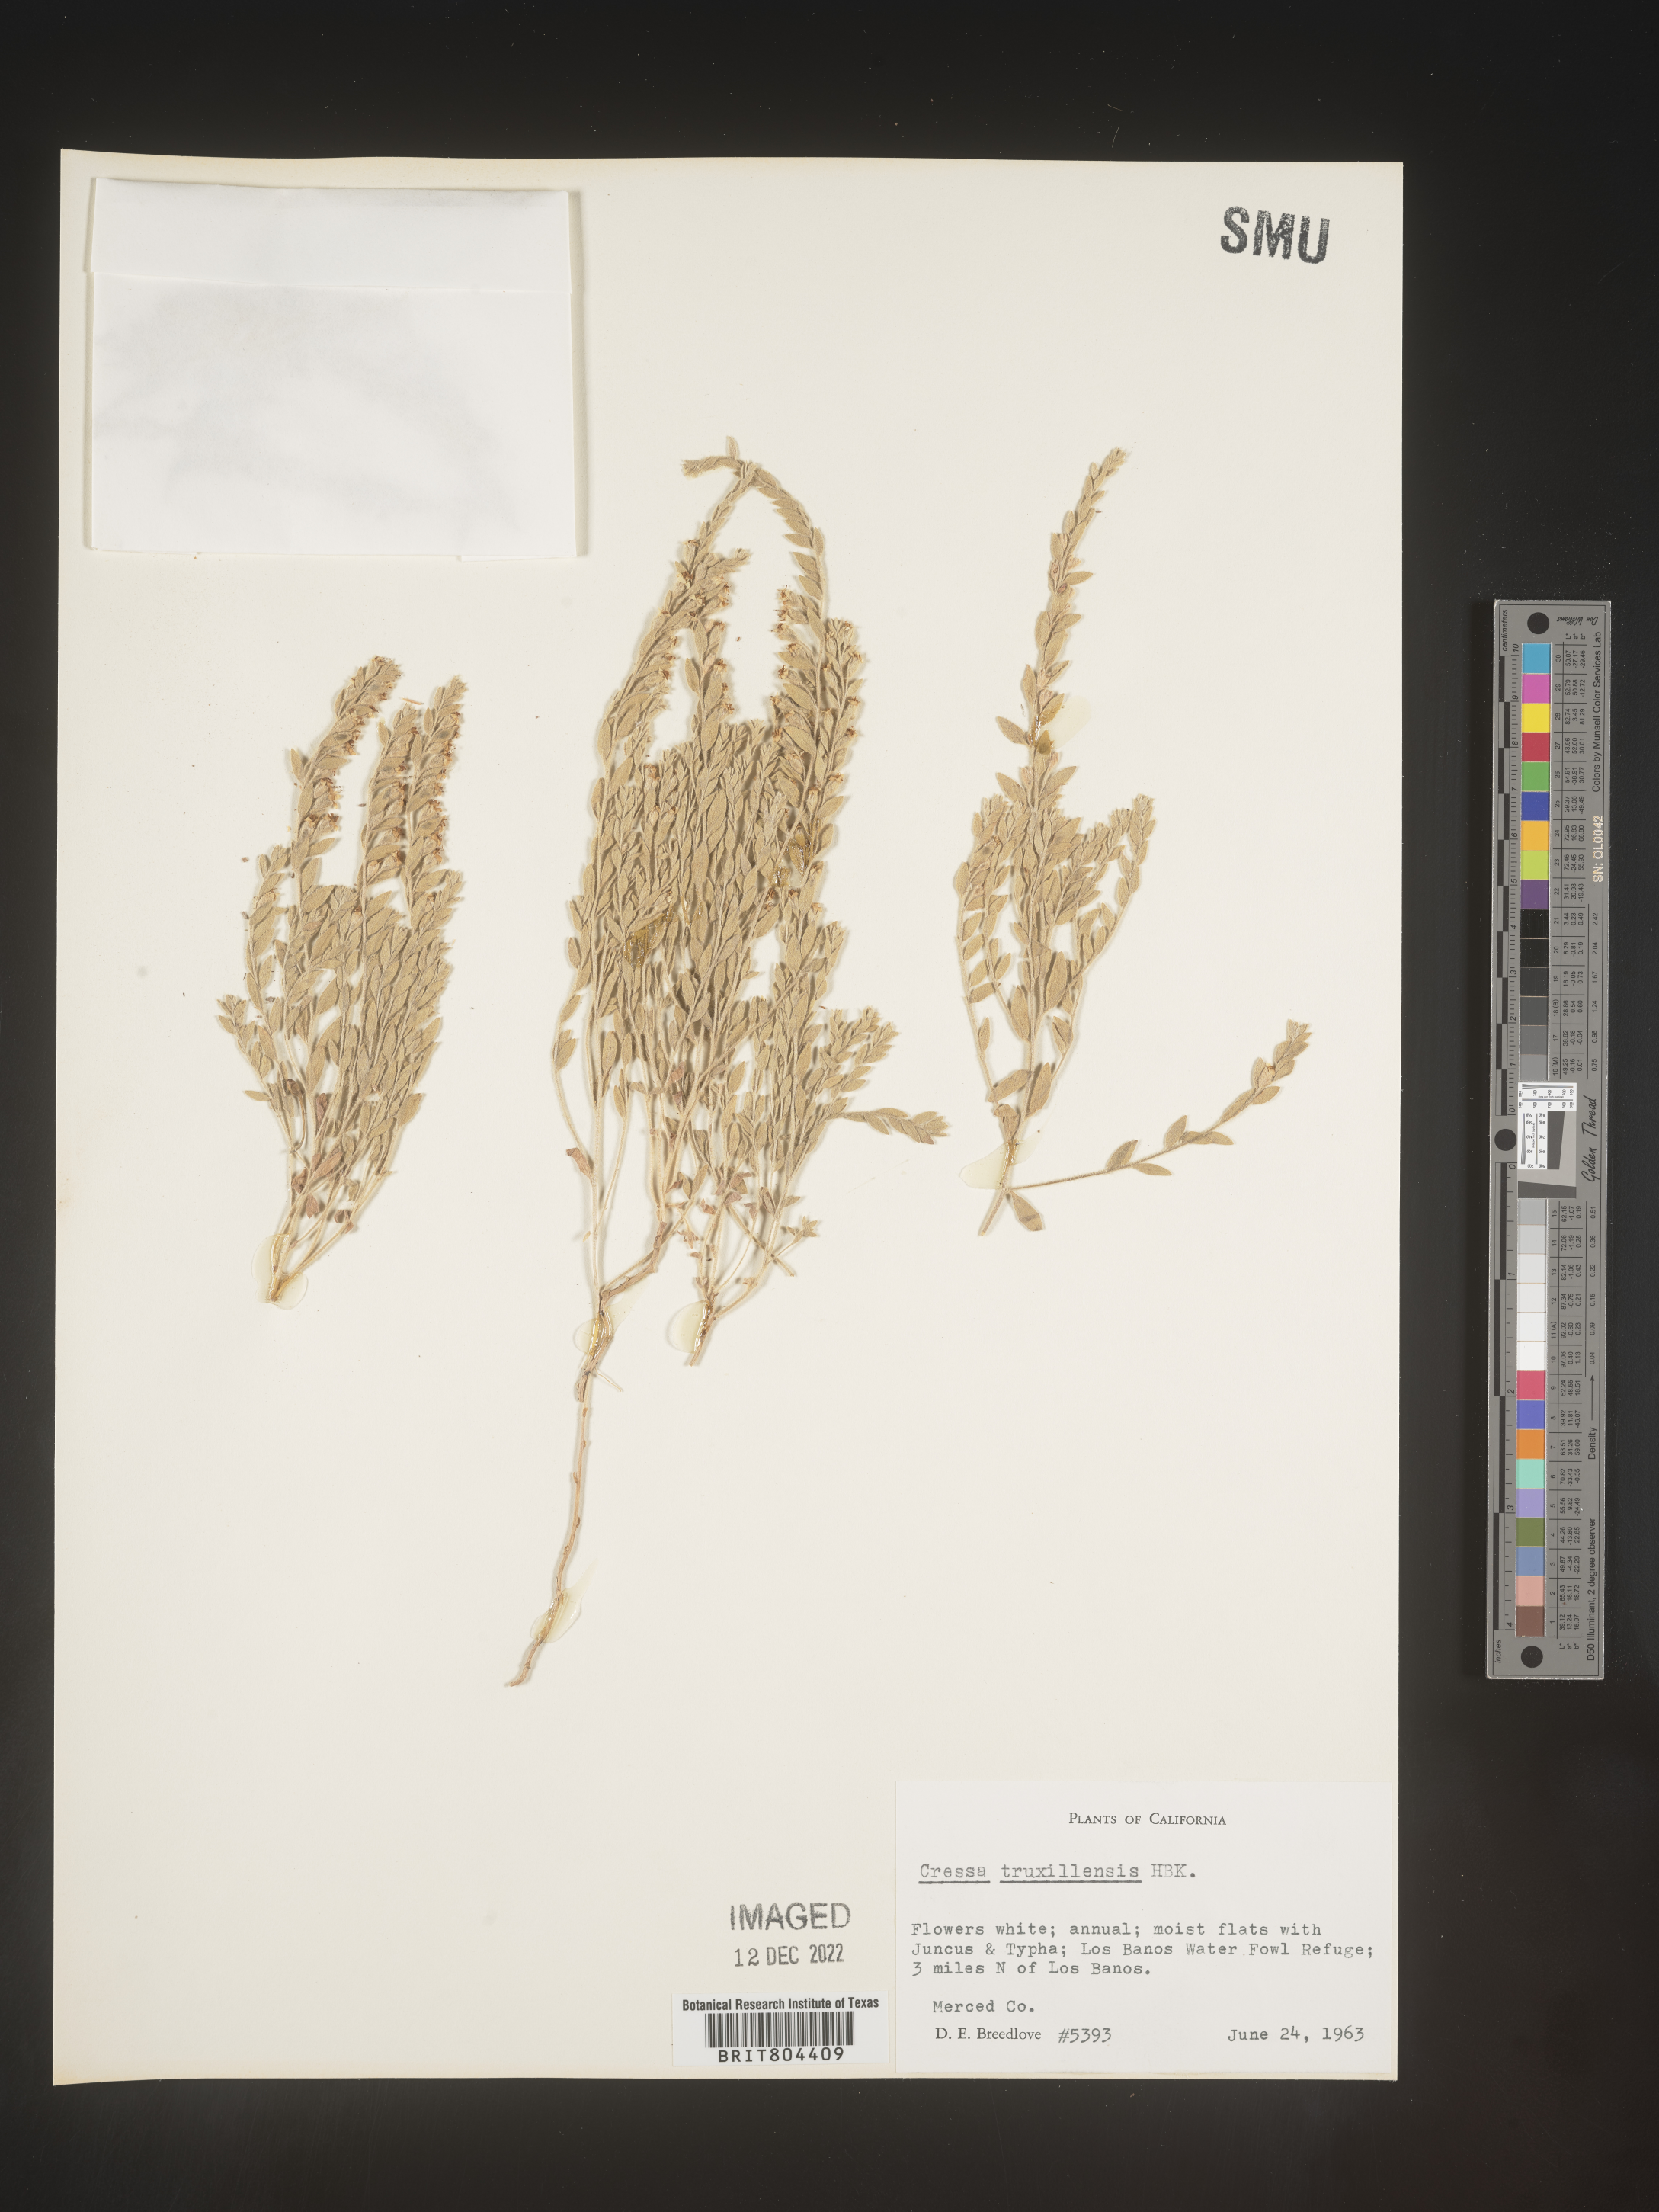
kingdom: Plantae
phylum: Tracheophyta
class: Magnoliopsida
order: Solanales
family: Convolvulaceae
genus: Cressa
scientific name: Cressa
